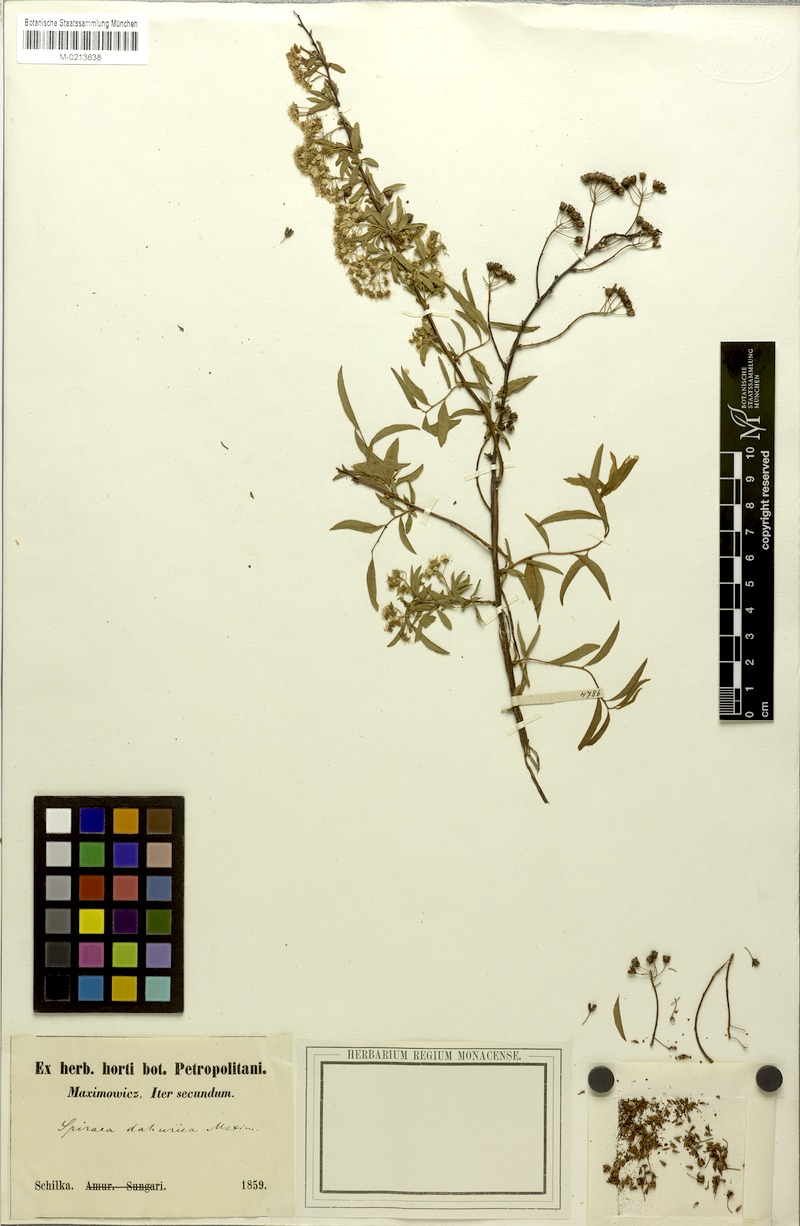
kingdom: Plantae
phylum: Tracheophyta
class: Magnoliopsida
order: Rosales
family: Rosaceae
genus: Spiraea
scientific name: Spiraea dahurica
